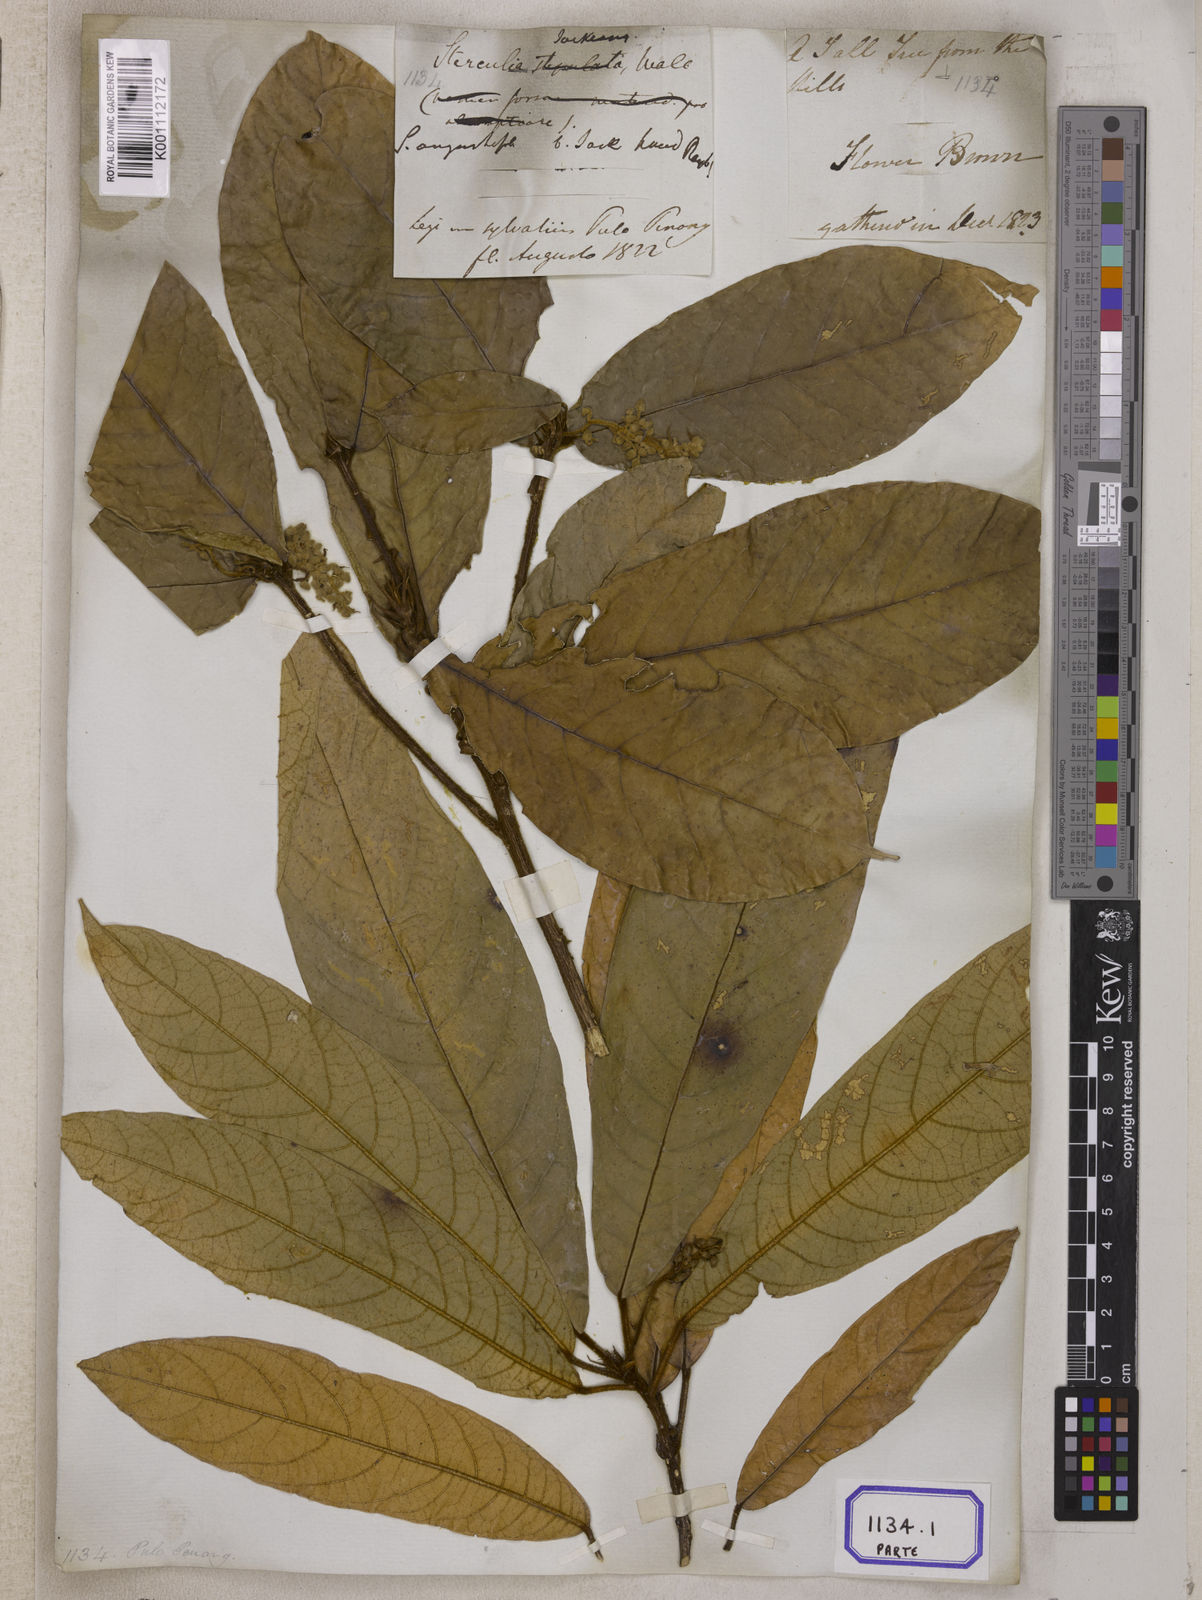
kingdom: Plantae
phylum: Tracheophyta
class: Magnoliopsida
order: Malvales
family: Malvaceae
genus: Sterculia
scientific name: Sterculia rubiginosa
